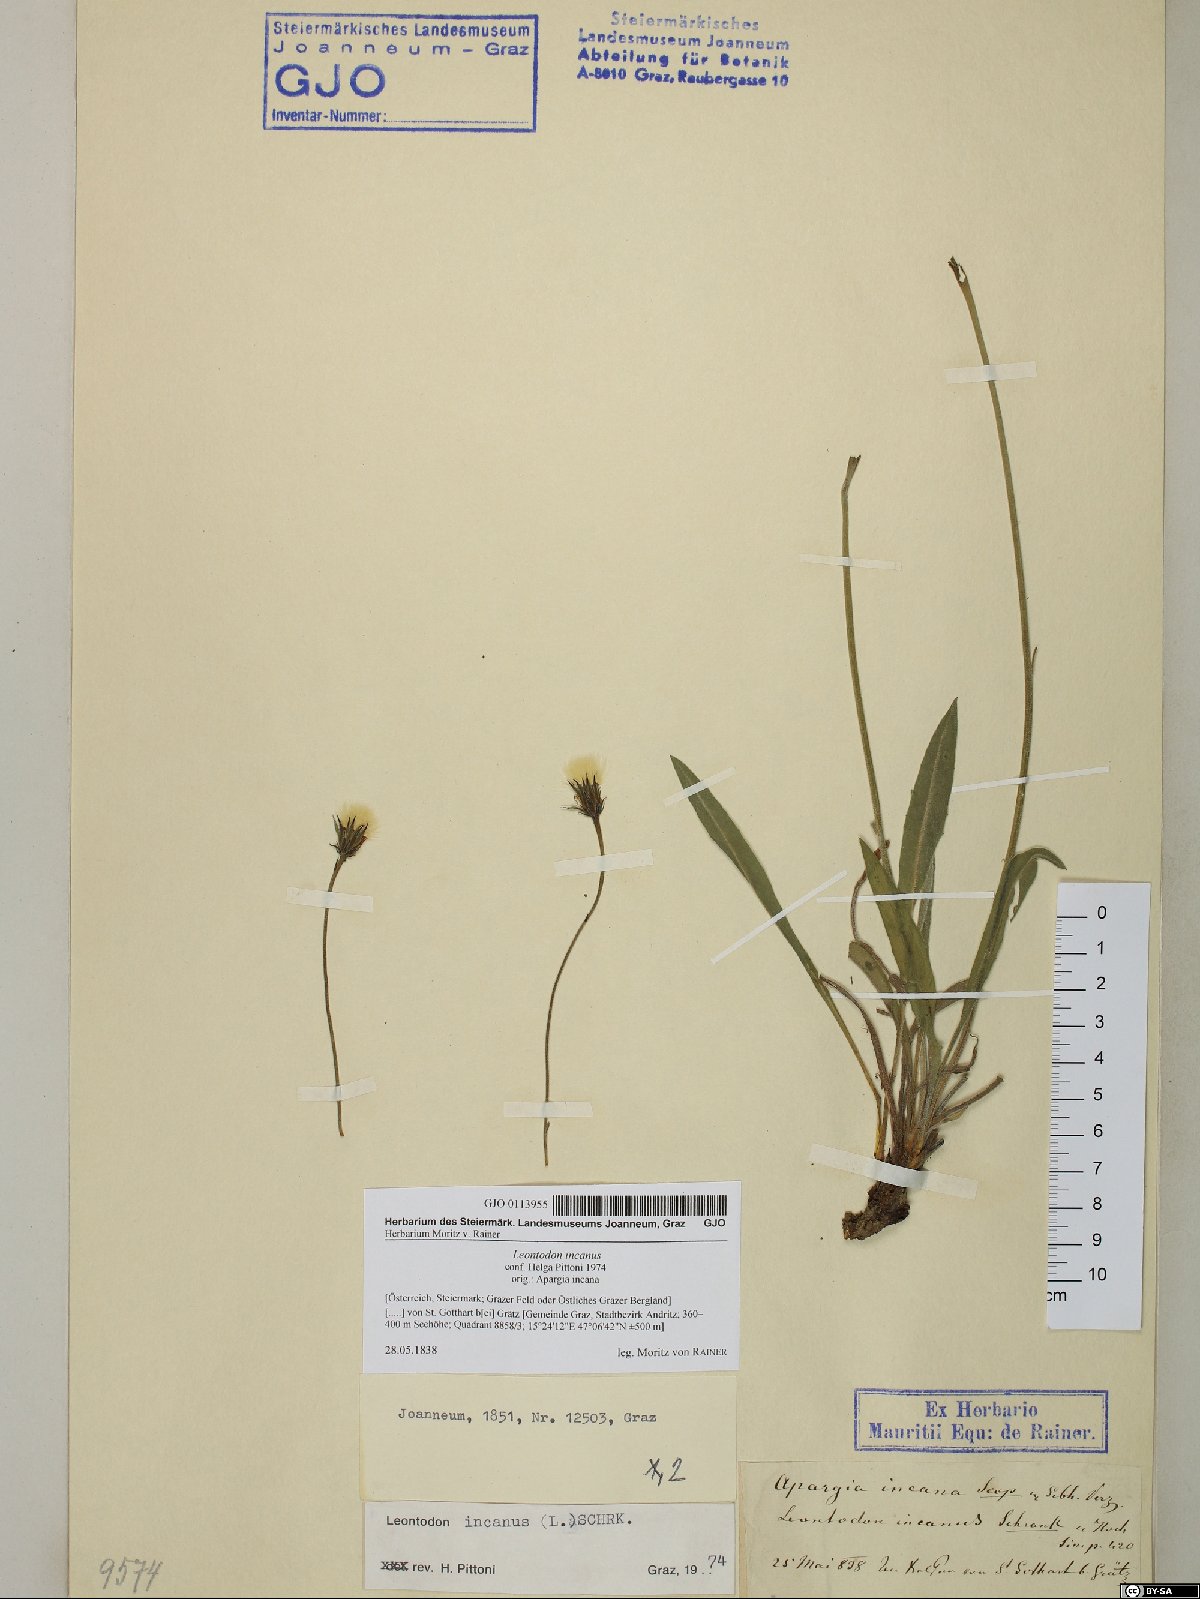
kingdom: Plantae
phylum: Tracheophyta
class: Magnoliopsida
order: Asterales
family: Asteraceae
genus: Leontodon
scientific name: Leontodon incanus
